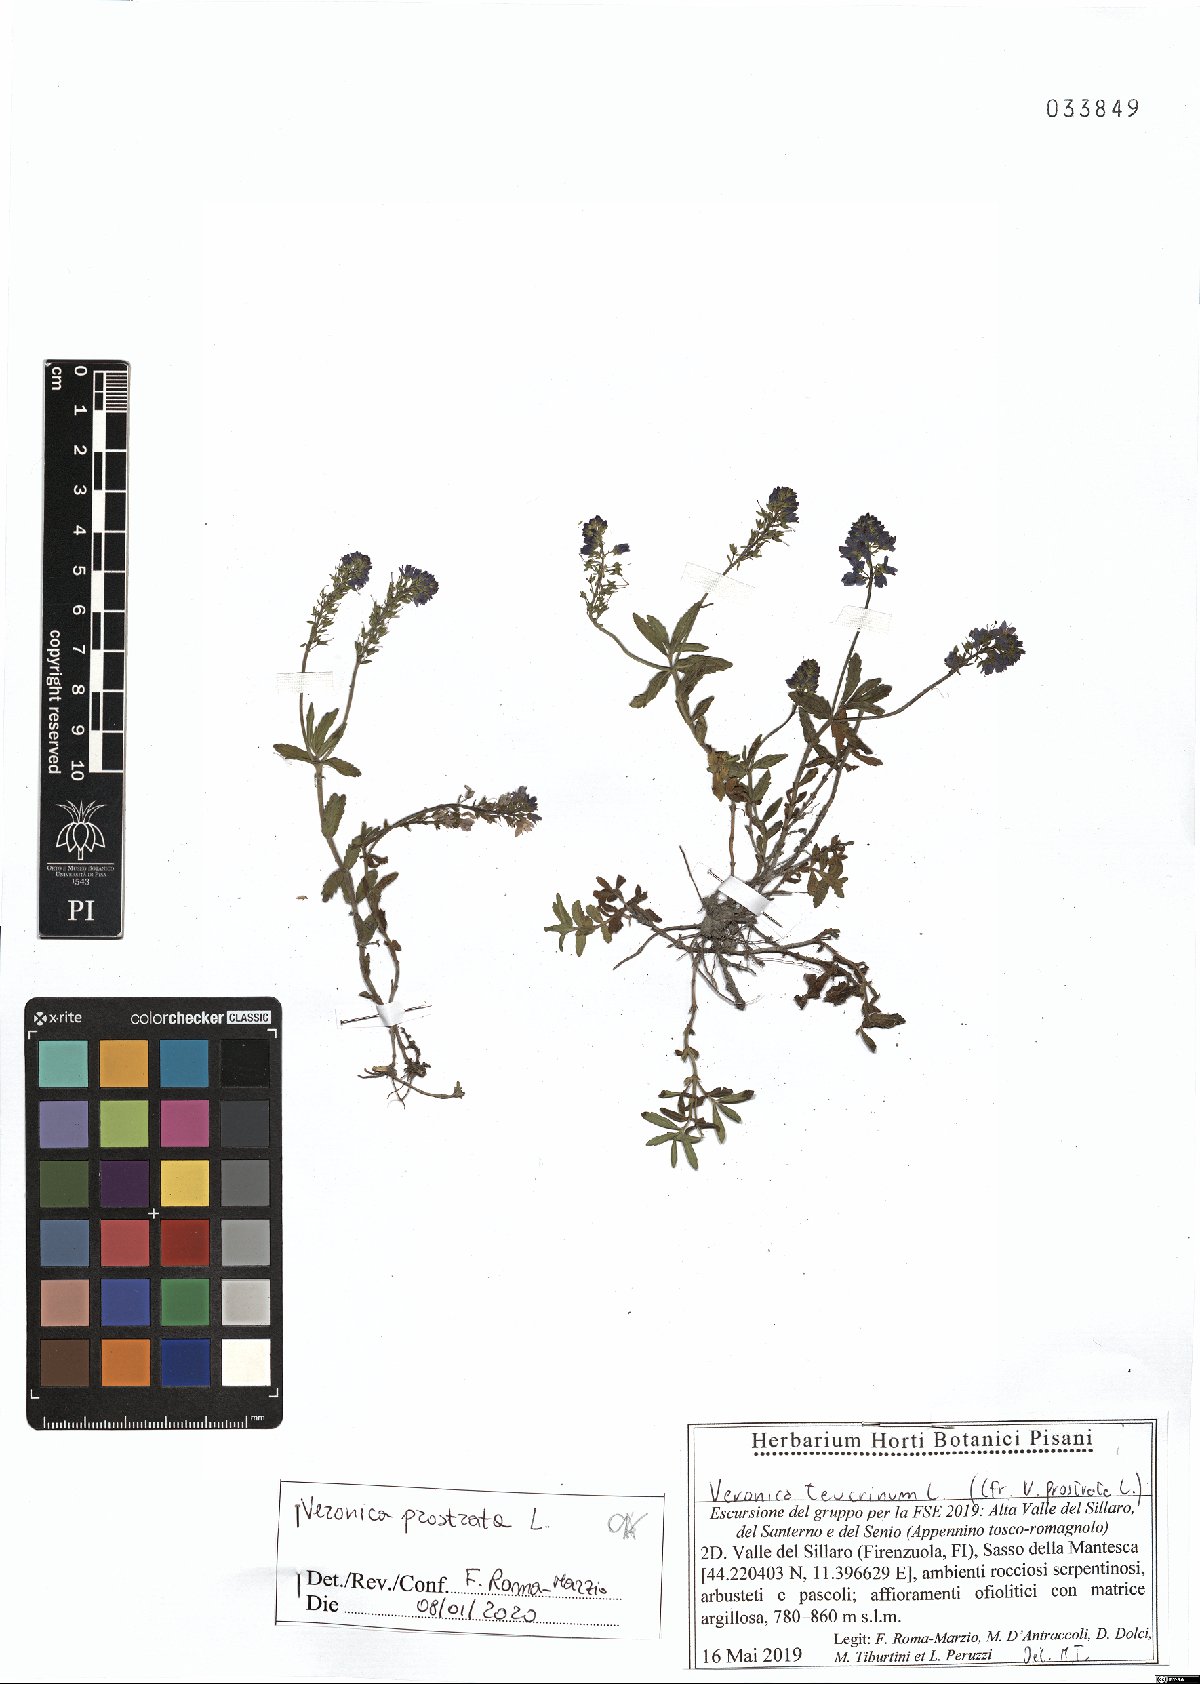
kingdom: Plantae
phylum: Tracheophyta
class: Magnoliopsida
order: Lamiales
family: Plantaginaceae
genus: Veronica
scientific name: Veronica prostrata
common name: Prostrate speedwell
